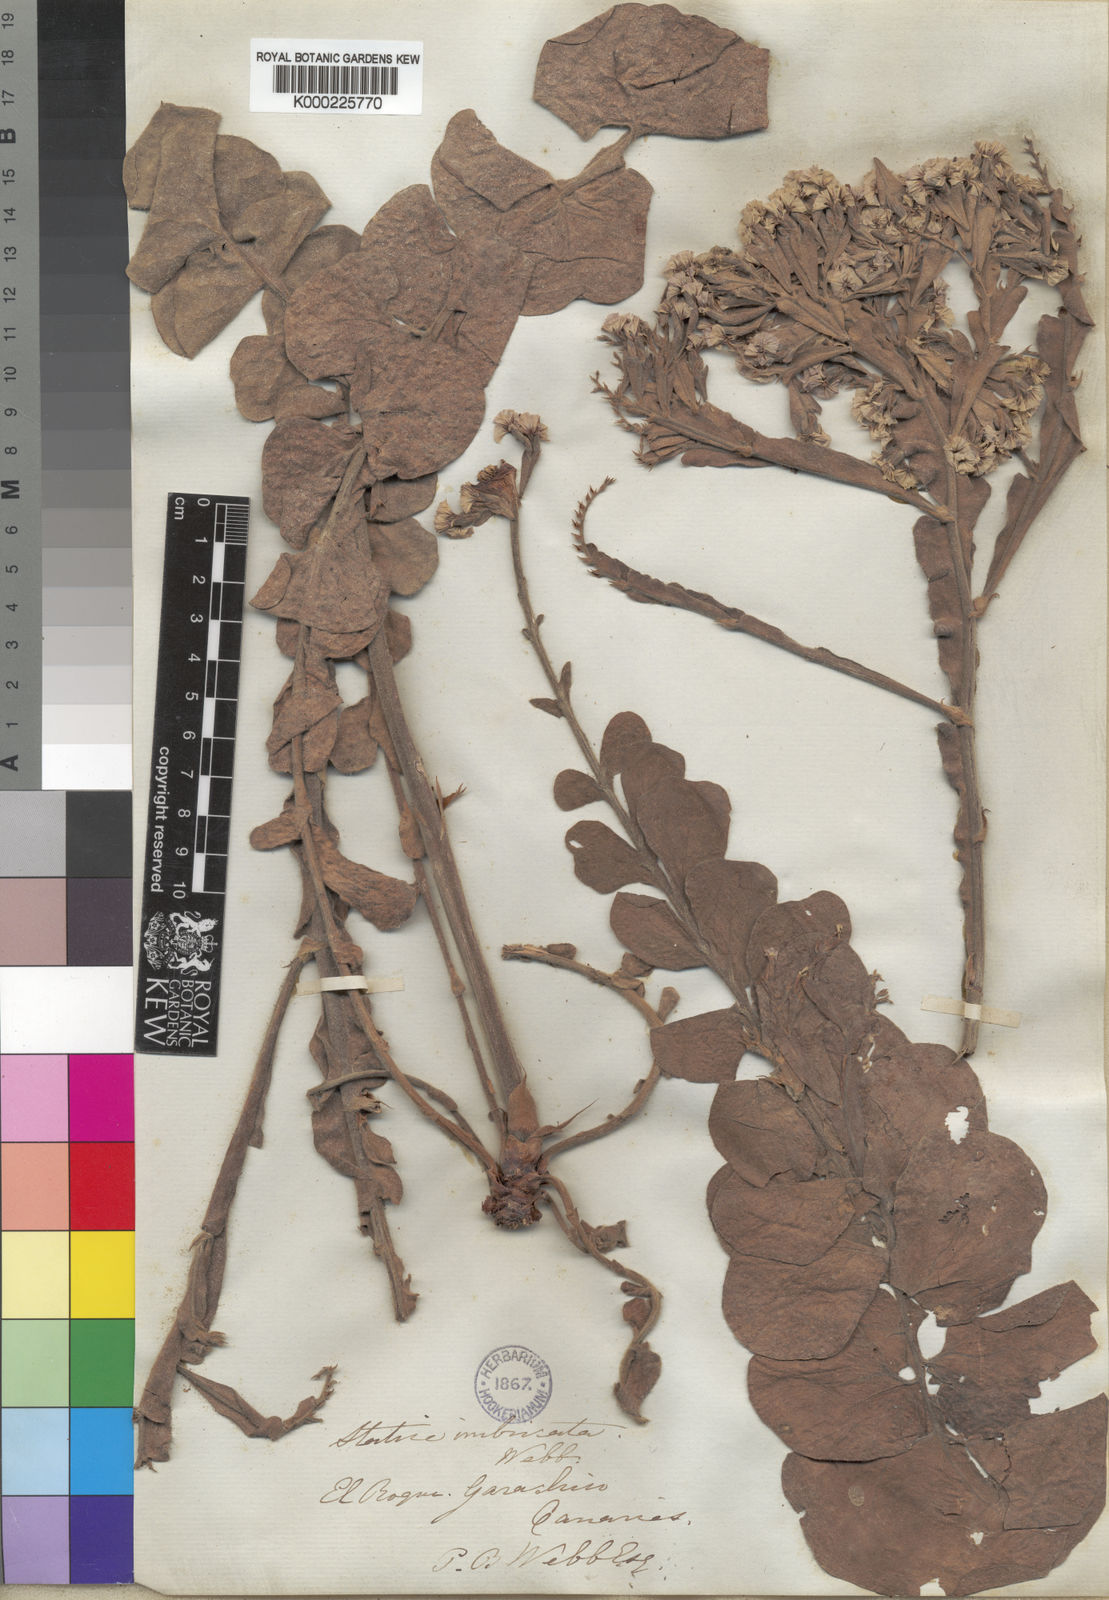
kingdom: Plantae
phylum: Tracheophyta
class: Magnoliopsida
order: Caryophyllales
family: Plumbaginaceae
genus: Limonium
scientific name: Limonium imbricatum
